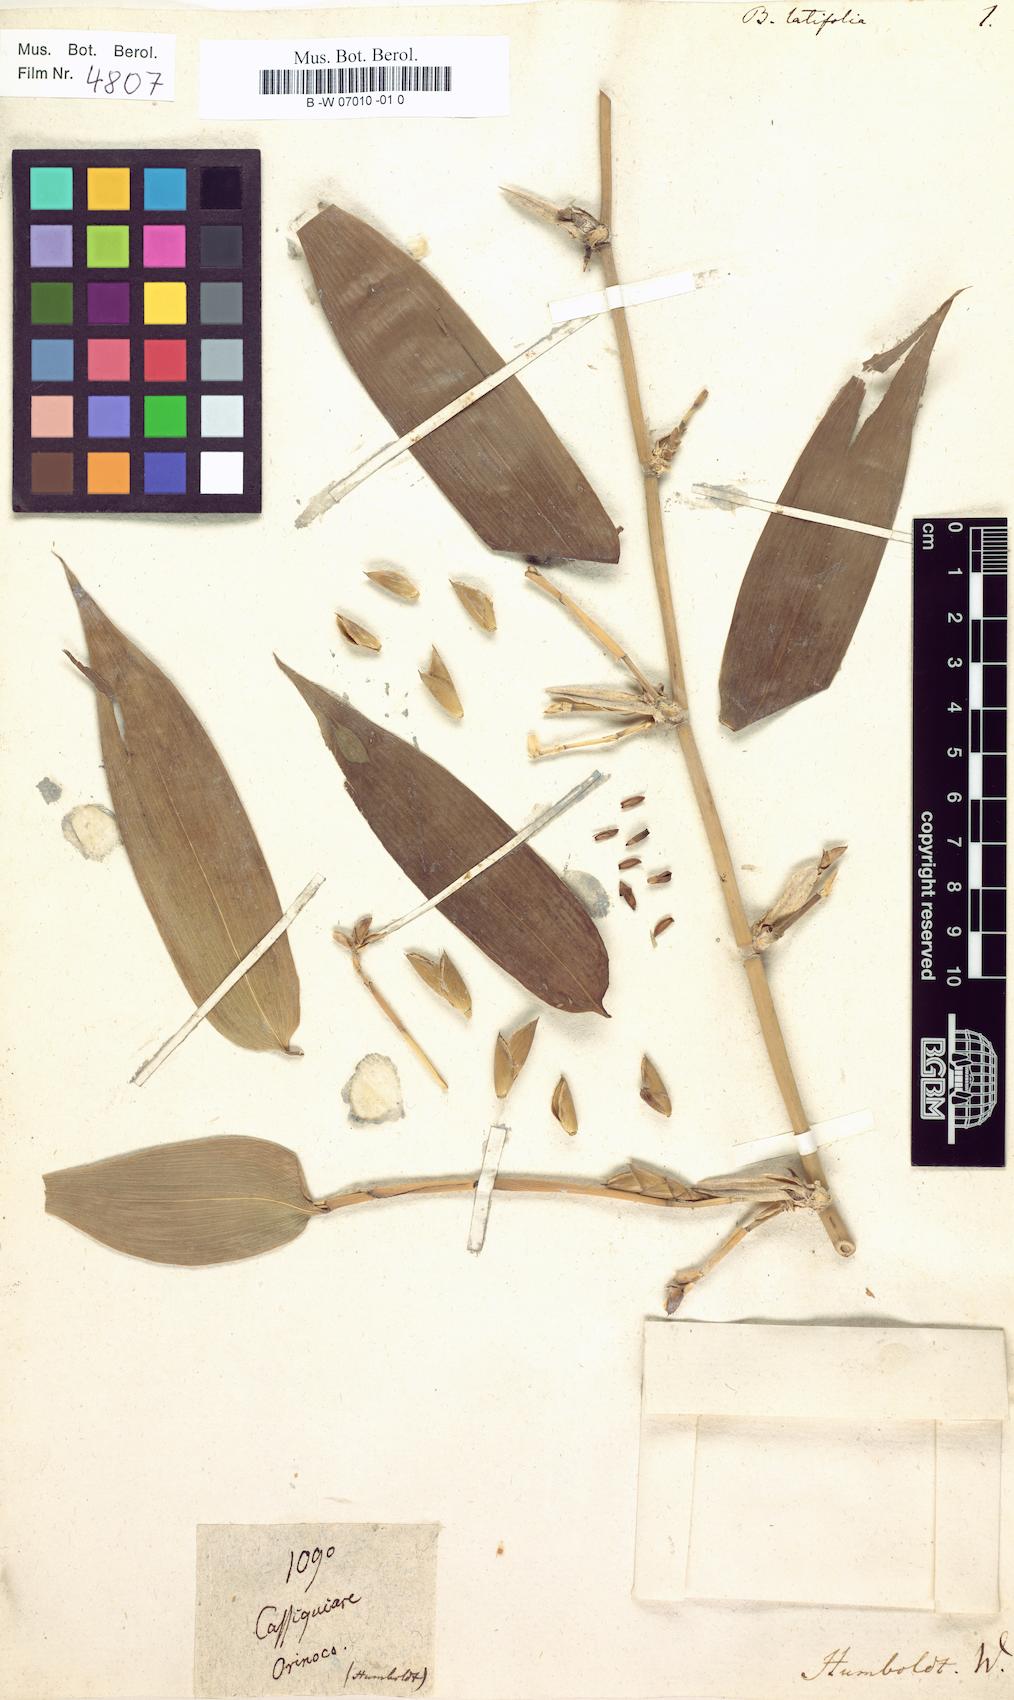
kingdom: Plantae
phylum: Tracheophyta
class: Liliopsida
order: Poales
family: Poaceae
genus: Guadua
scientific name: Guadua latifolia
